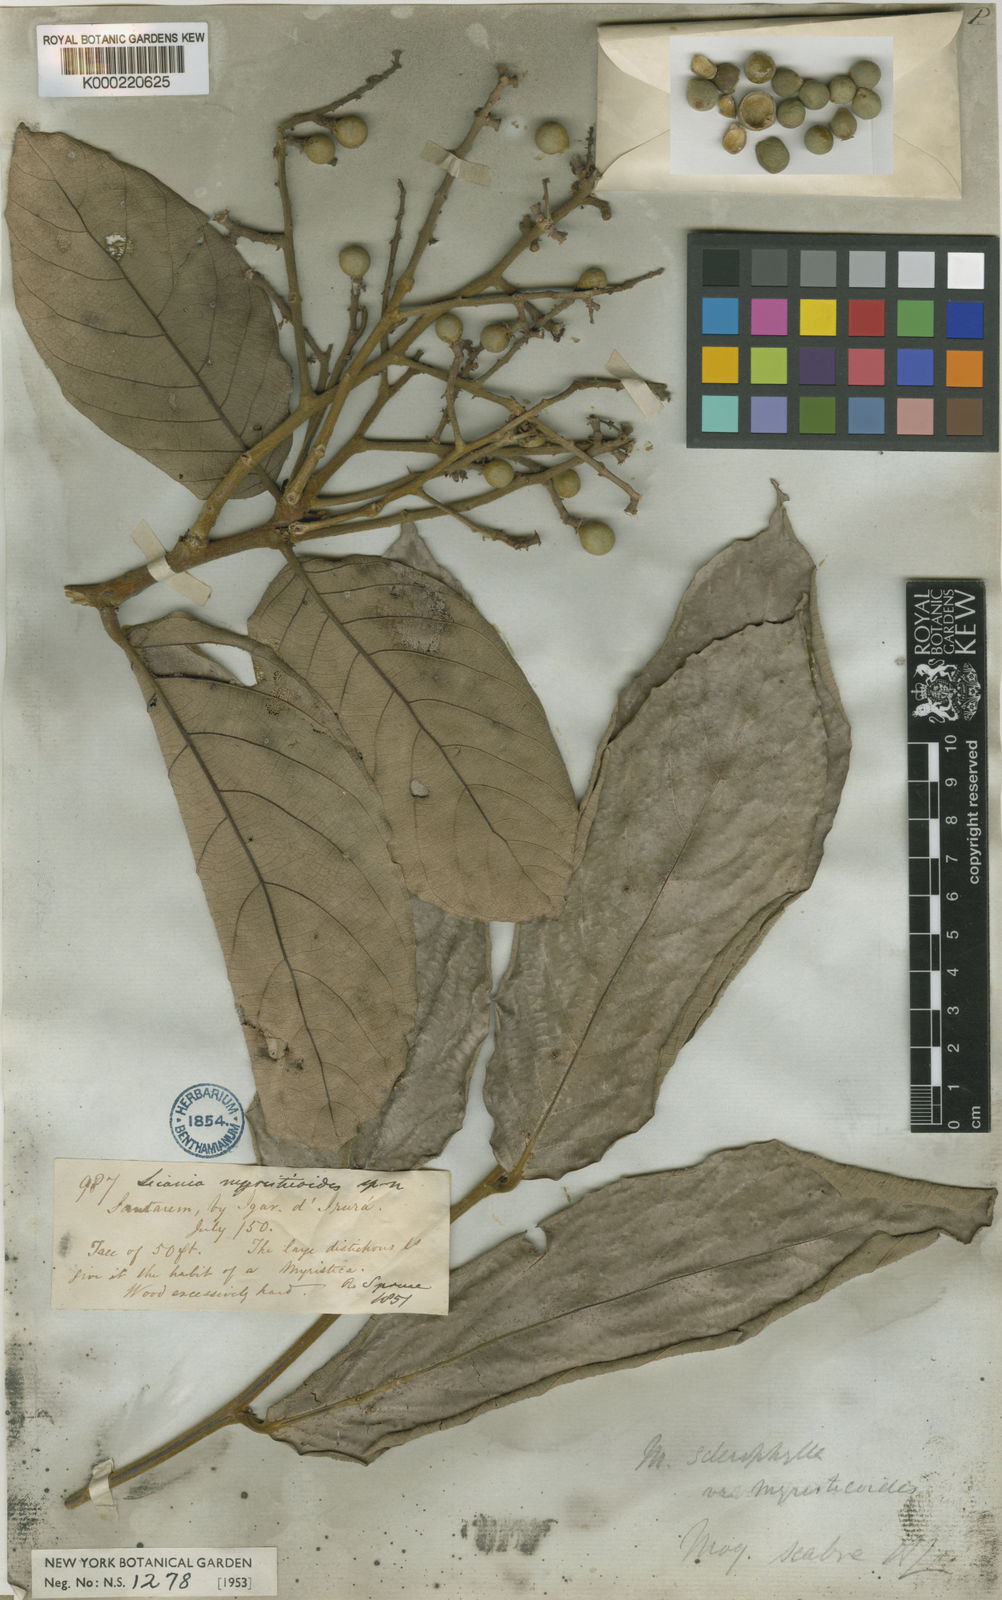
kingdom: Plantae
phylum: Tracheophyta
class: Magnoliopsida
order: Malpighiales
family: Chrysobalanaceae
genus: Licania
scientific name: Licania sclerophylla
